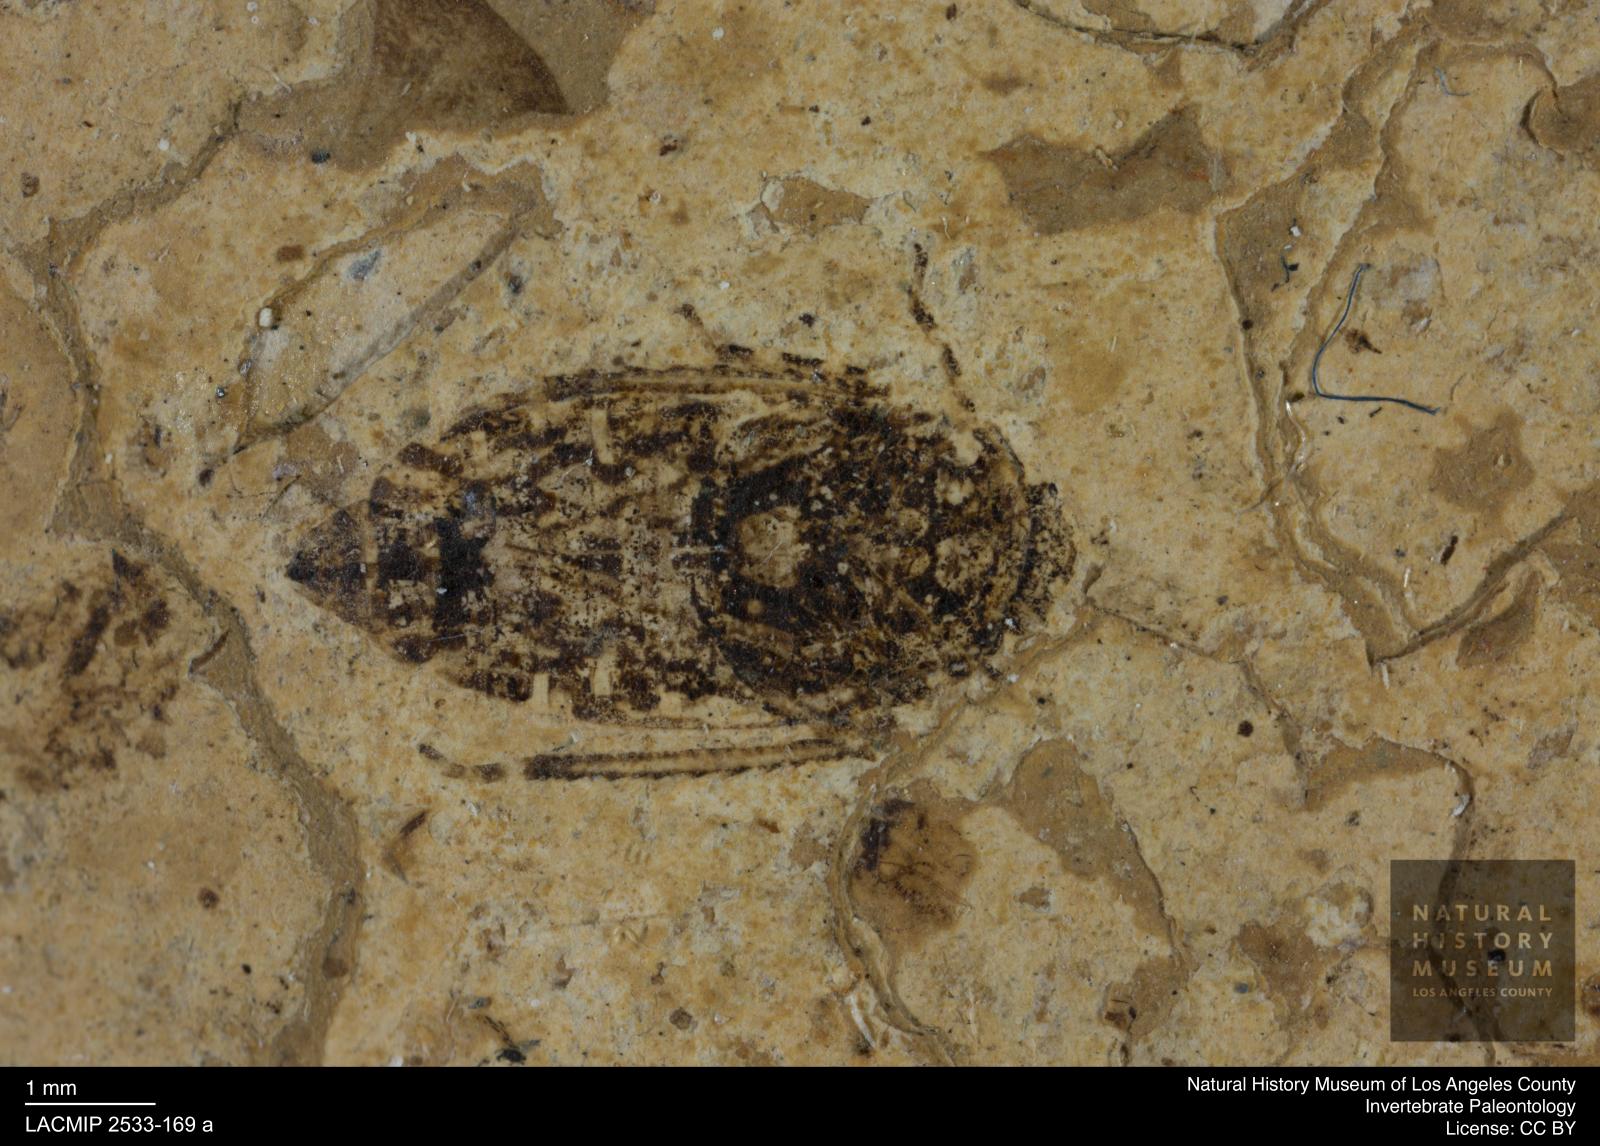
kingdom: Animalia
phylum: Arthropoda
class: Insecta
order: Hemiptera
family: Cicadellidae
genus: Euscelis
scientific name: Euscelis plateosa
